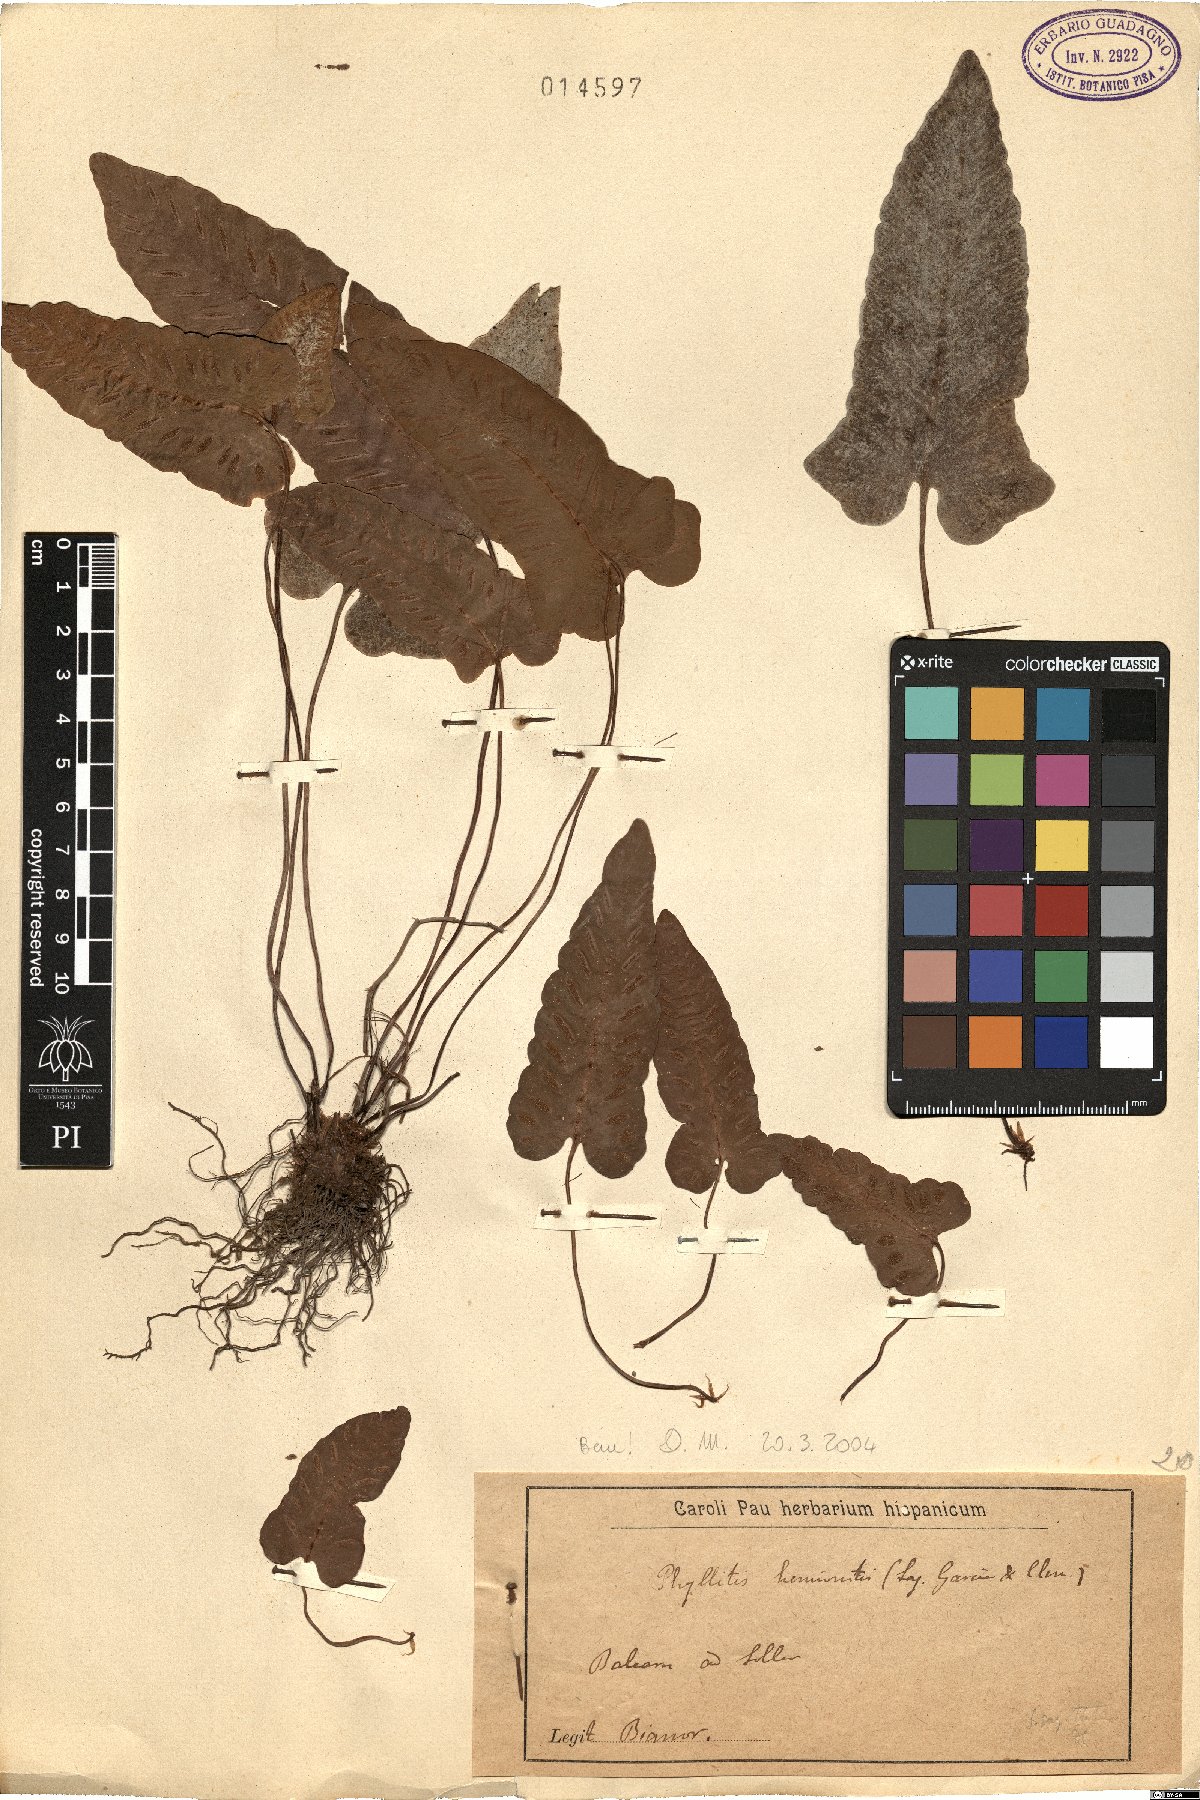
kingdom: Plantae
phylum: Tracheophyta
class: Polypodiopsida
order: Polypodiales
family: Aspleniaceae
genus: Asplenium
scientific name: Asplenium sagittatum
